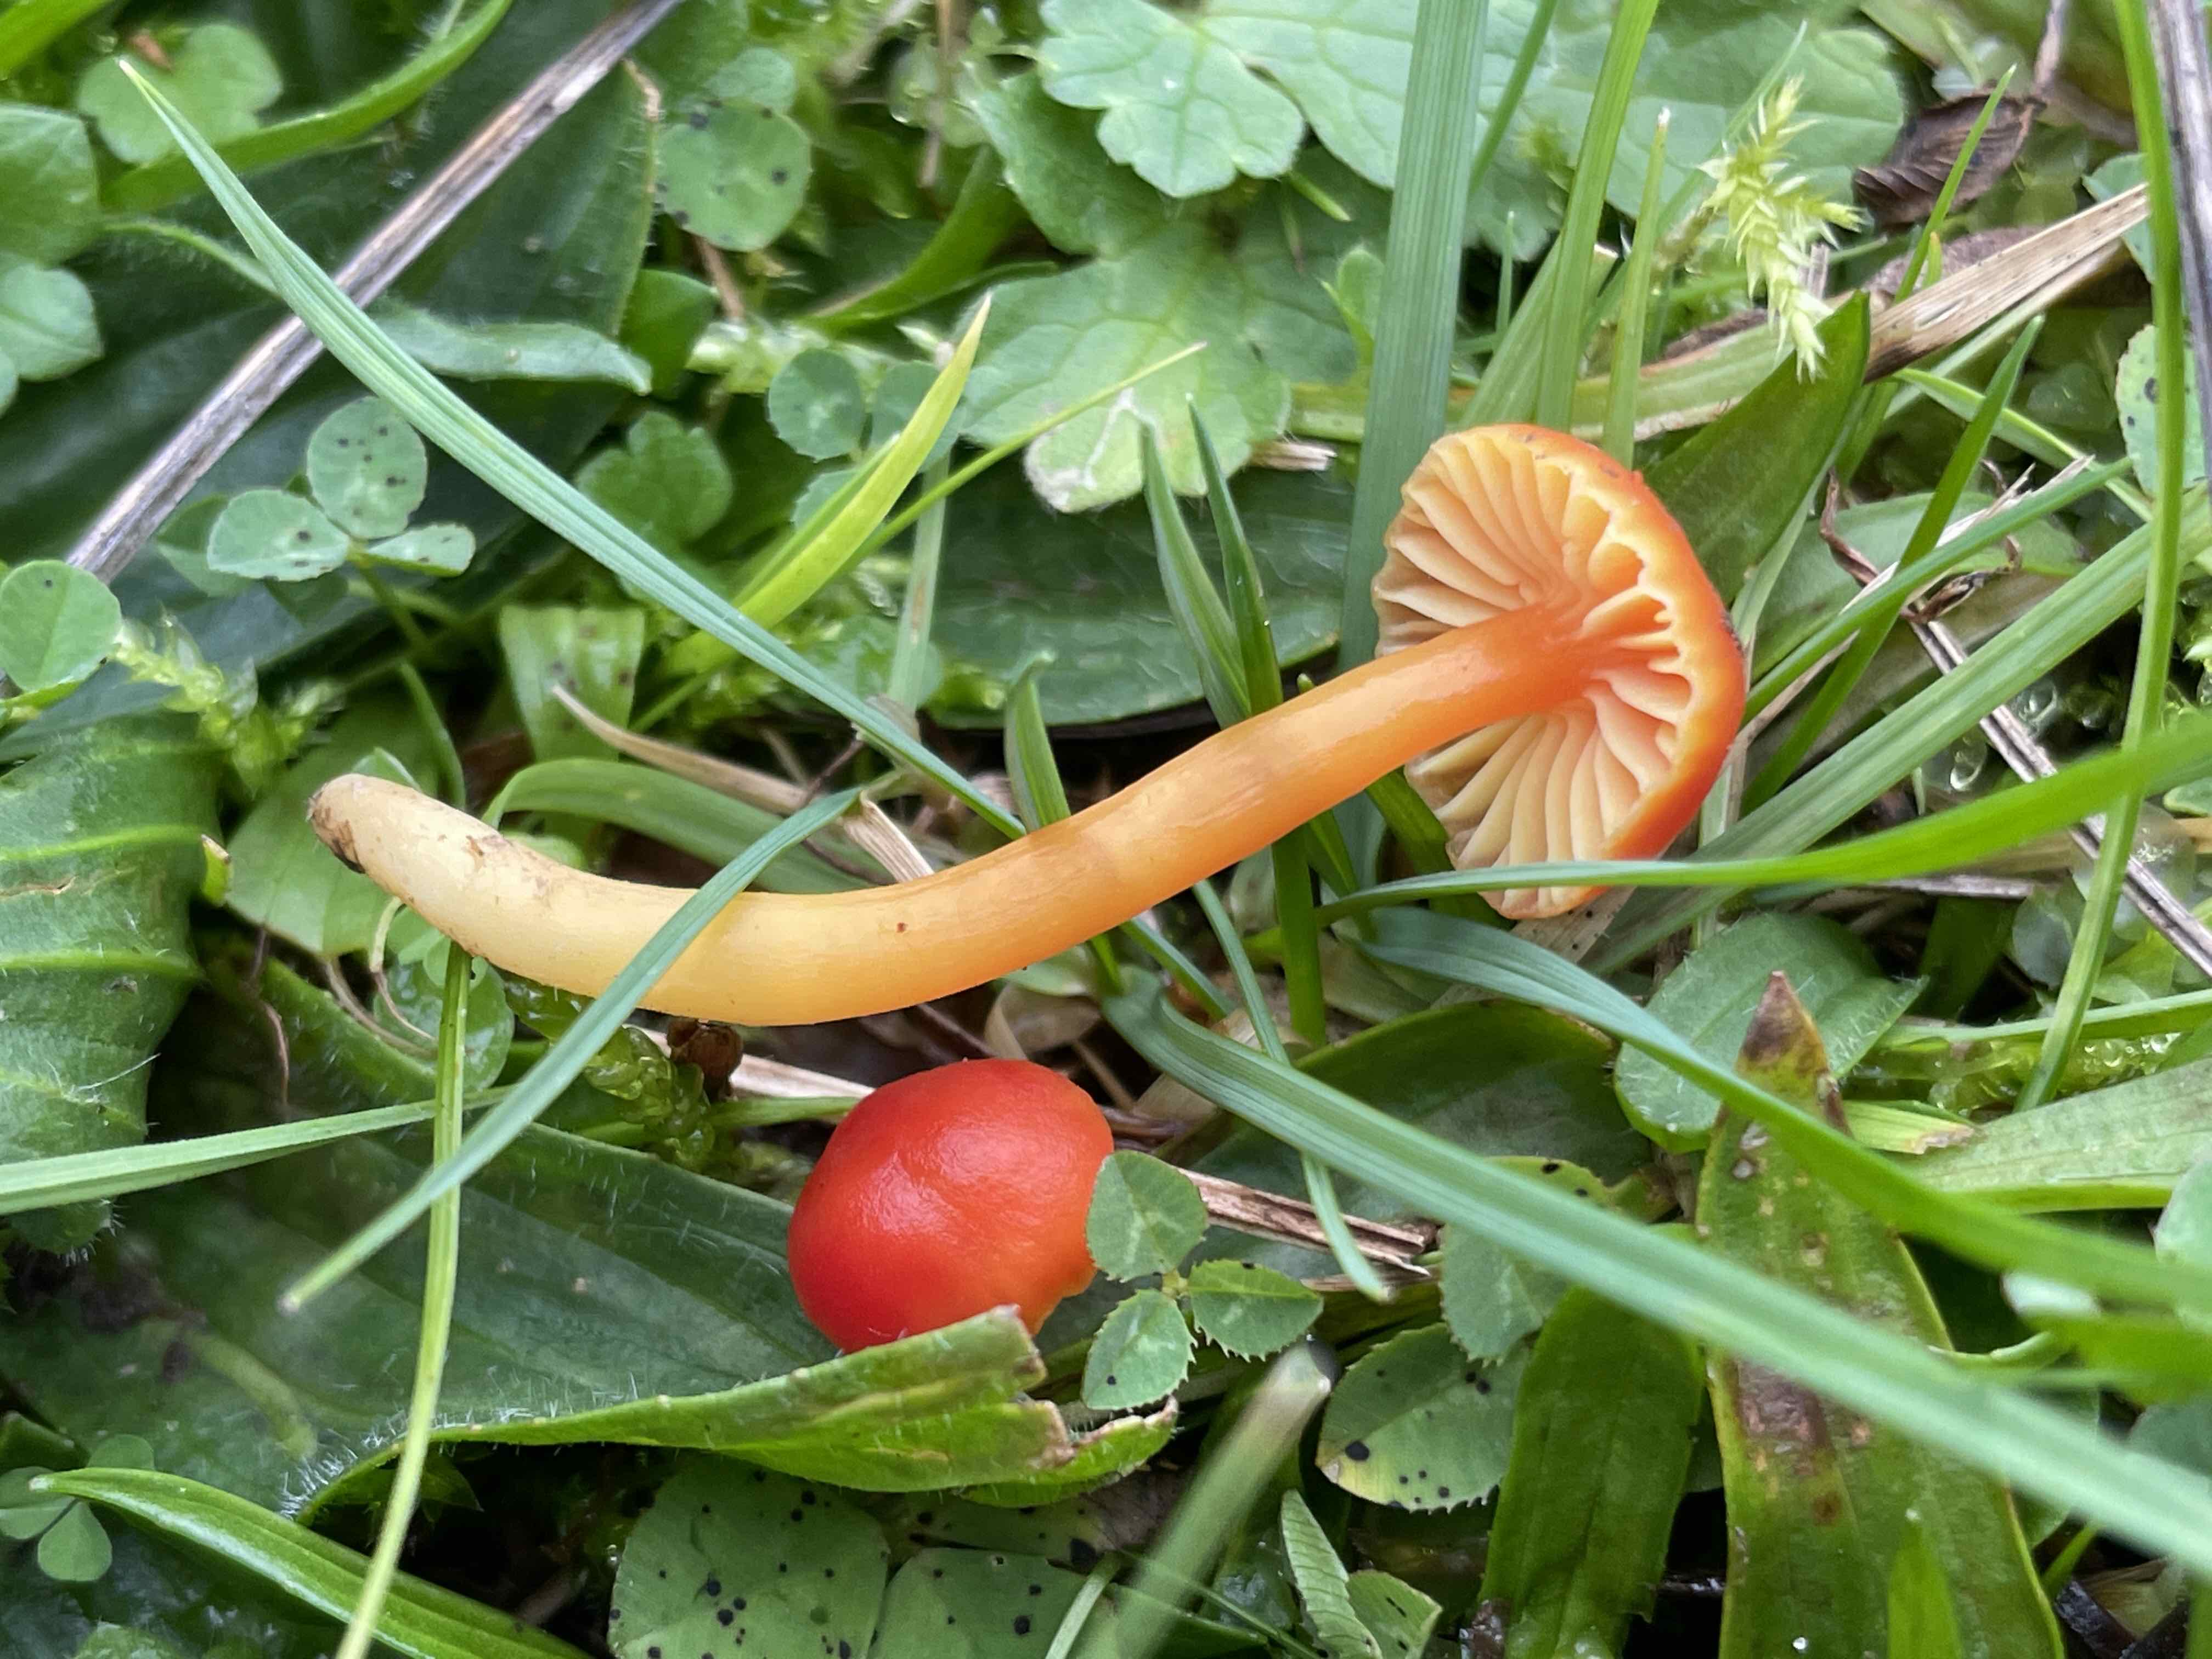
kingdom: Fungi
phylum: Basidiomycota
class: Agaricomycetes
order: Agaricales
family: Hygrophoraceae
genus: Hygrocybe
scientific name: Hygrocybe mucronella
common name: bitter vokshat
